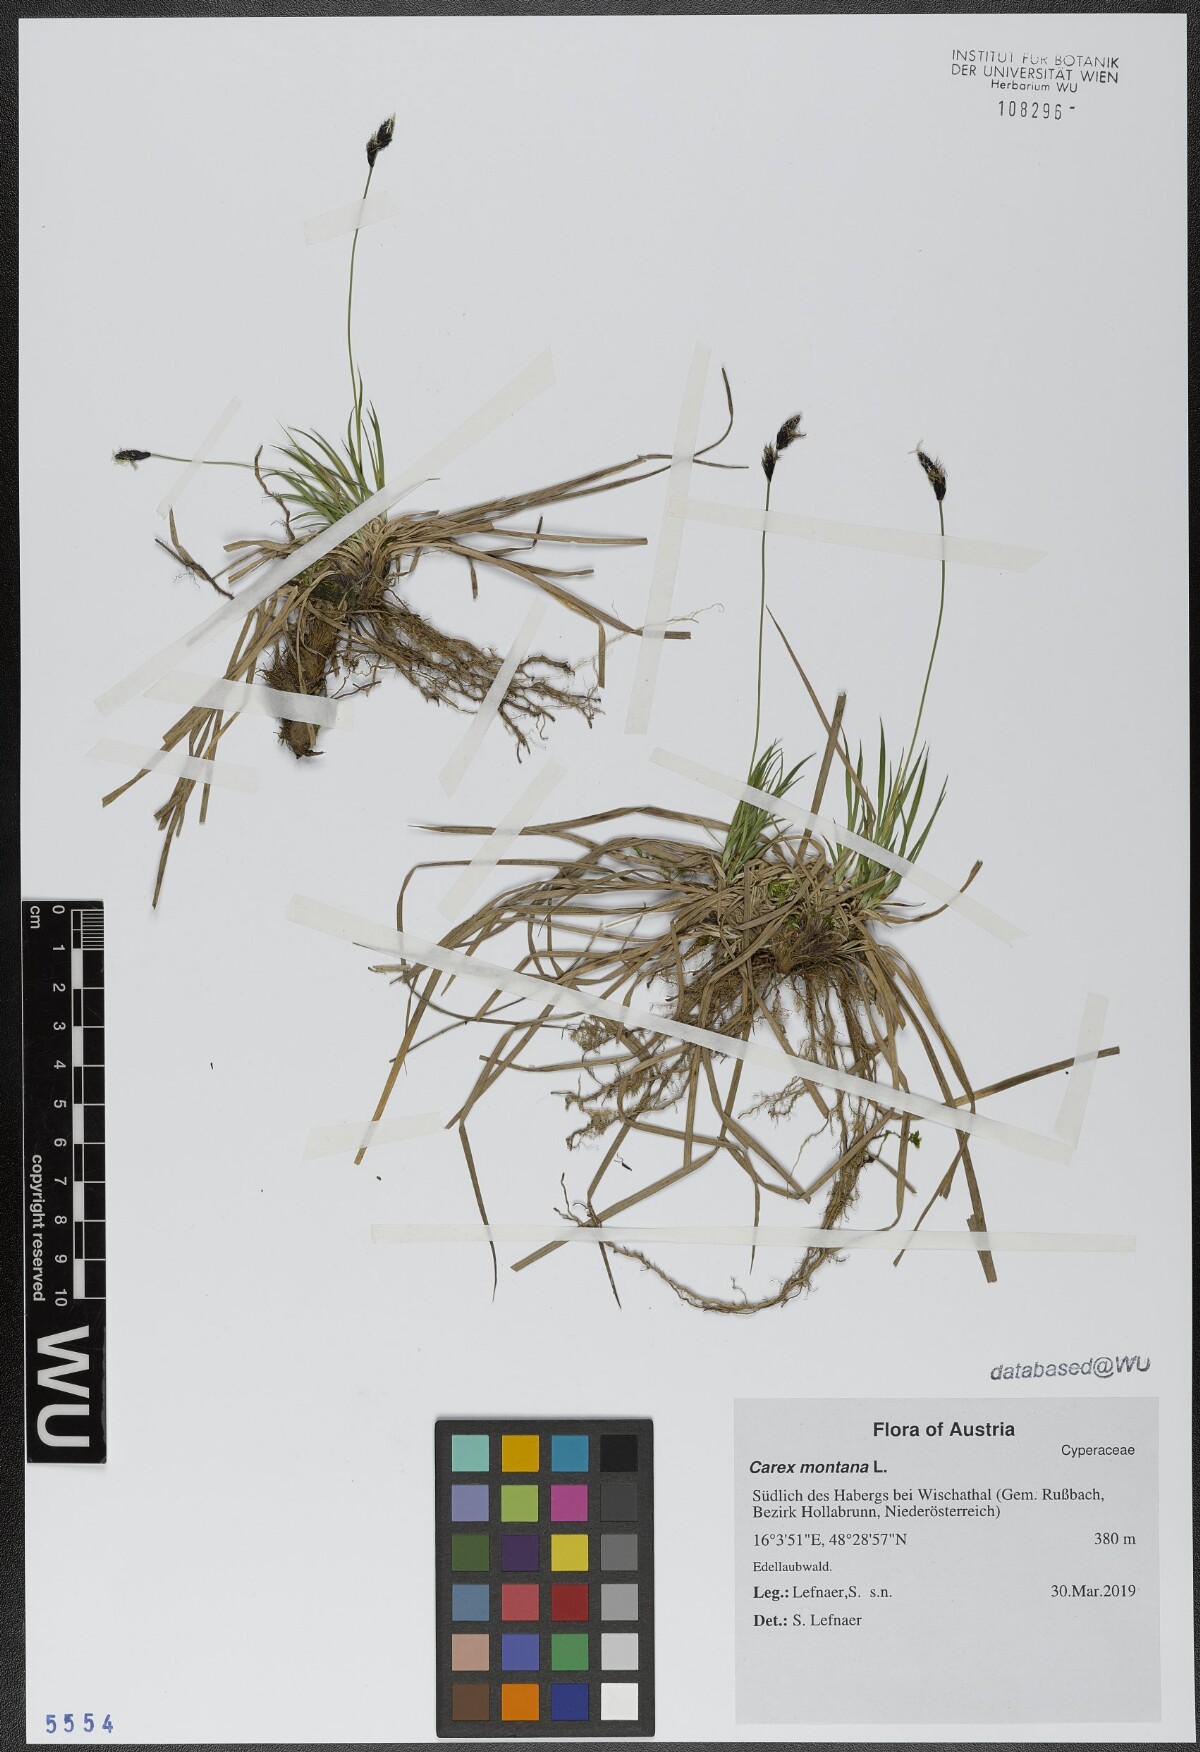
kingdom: Plantae
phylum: Tracheophyta
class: Liliopsida
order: Poales
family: Cyperaceae
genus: Carex
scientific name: Carex montana
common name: Soft-leaved sedge
